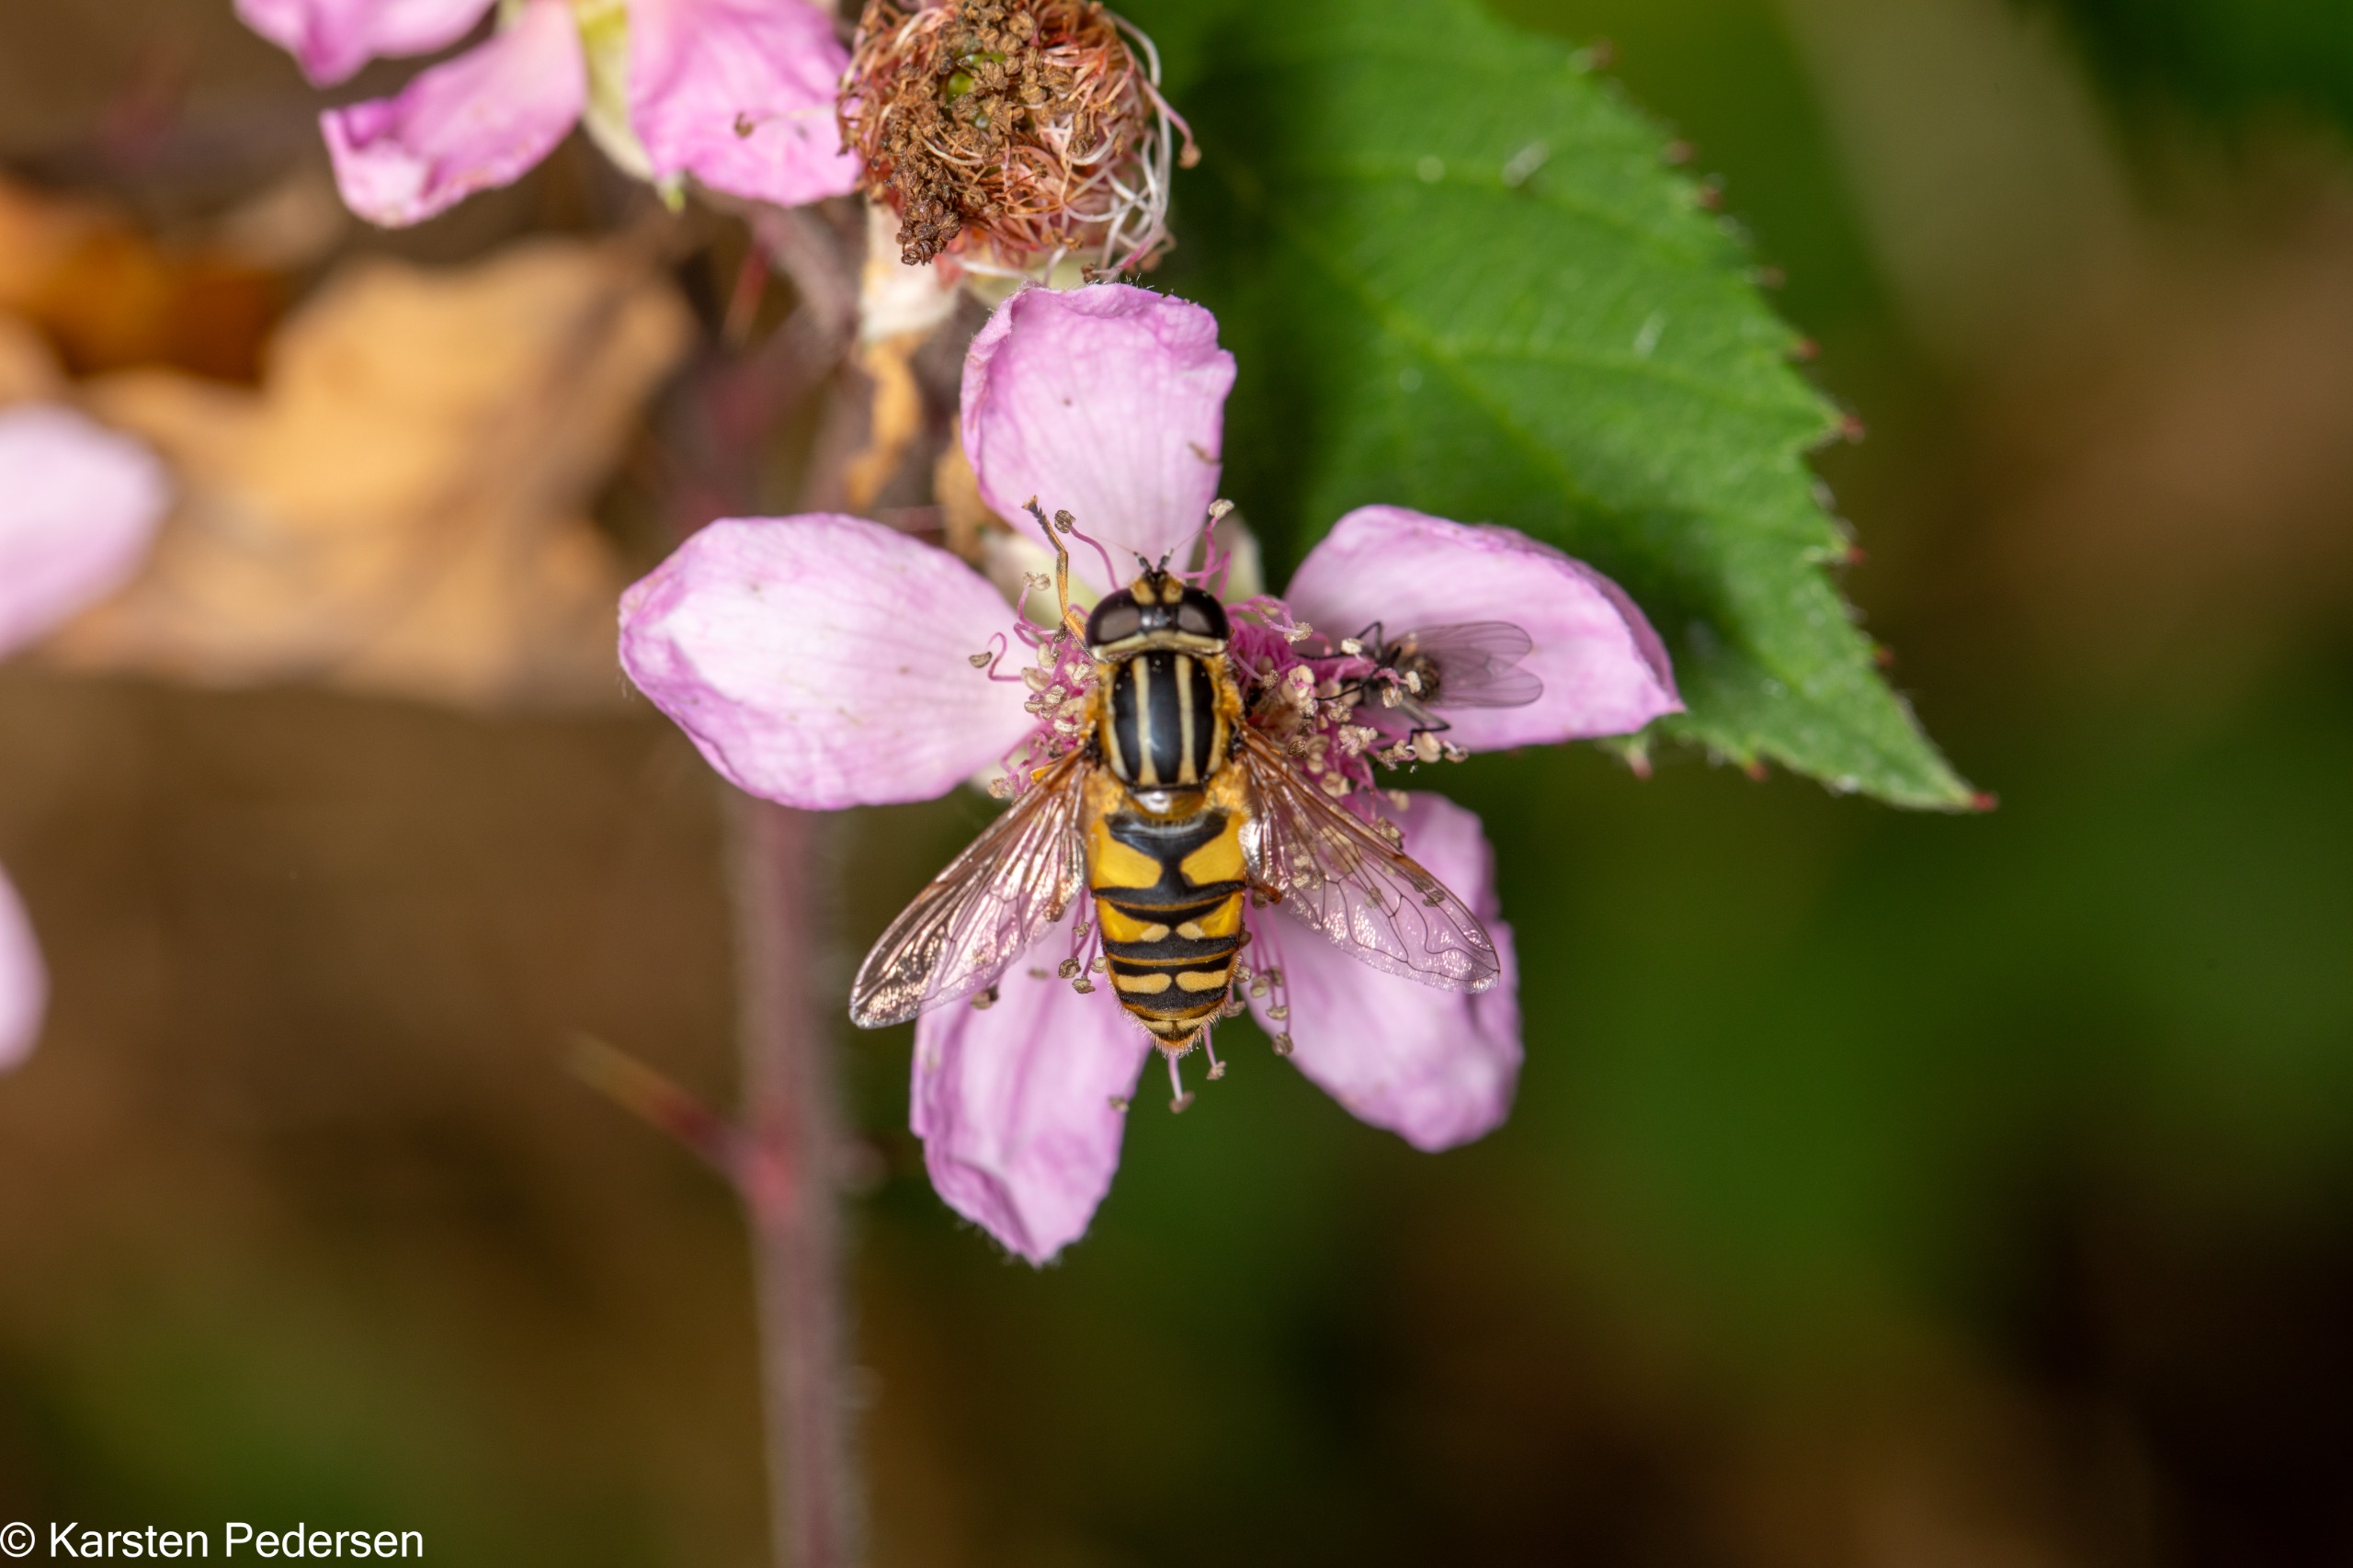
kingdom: Animalia
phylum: Arthropoda
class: Insecta
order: Diptera
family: Syrphidae
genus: Helophilus
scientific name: Helophilus pendulus
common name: Almindelig sumpsvirreflue
